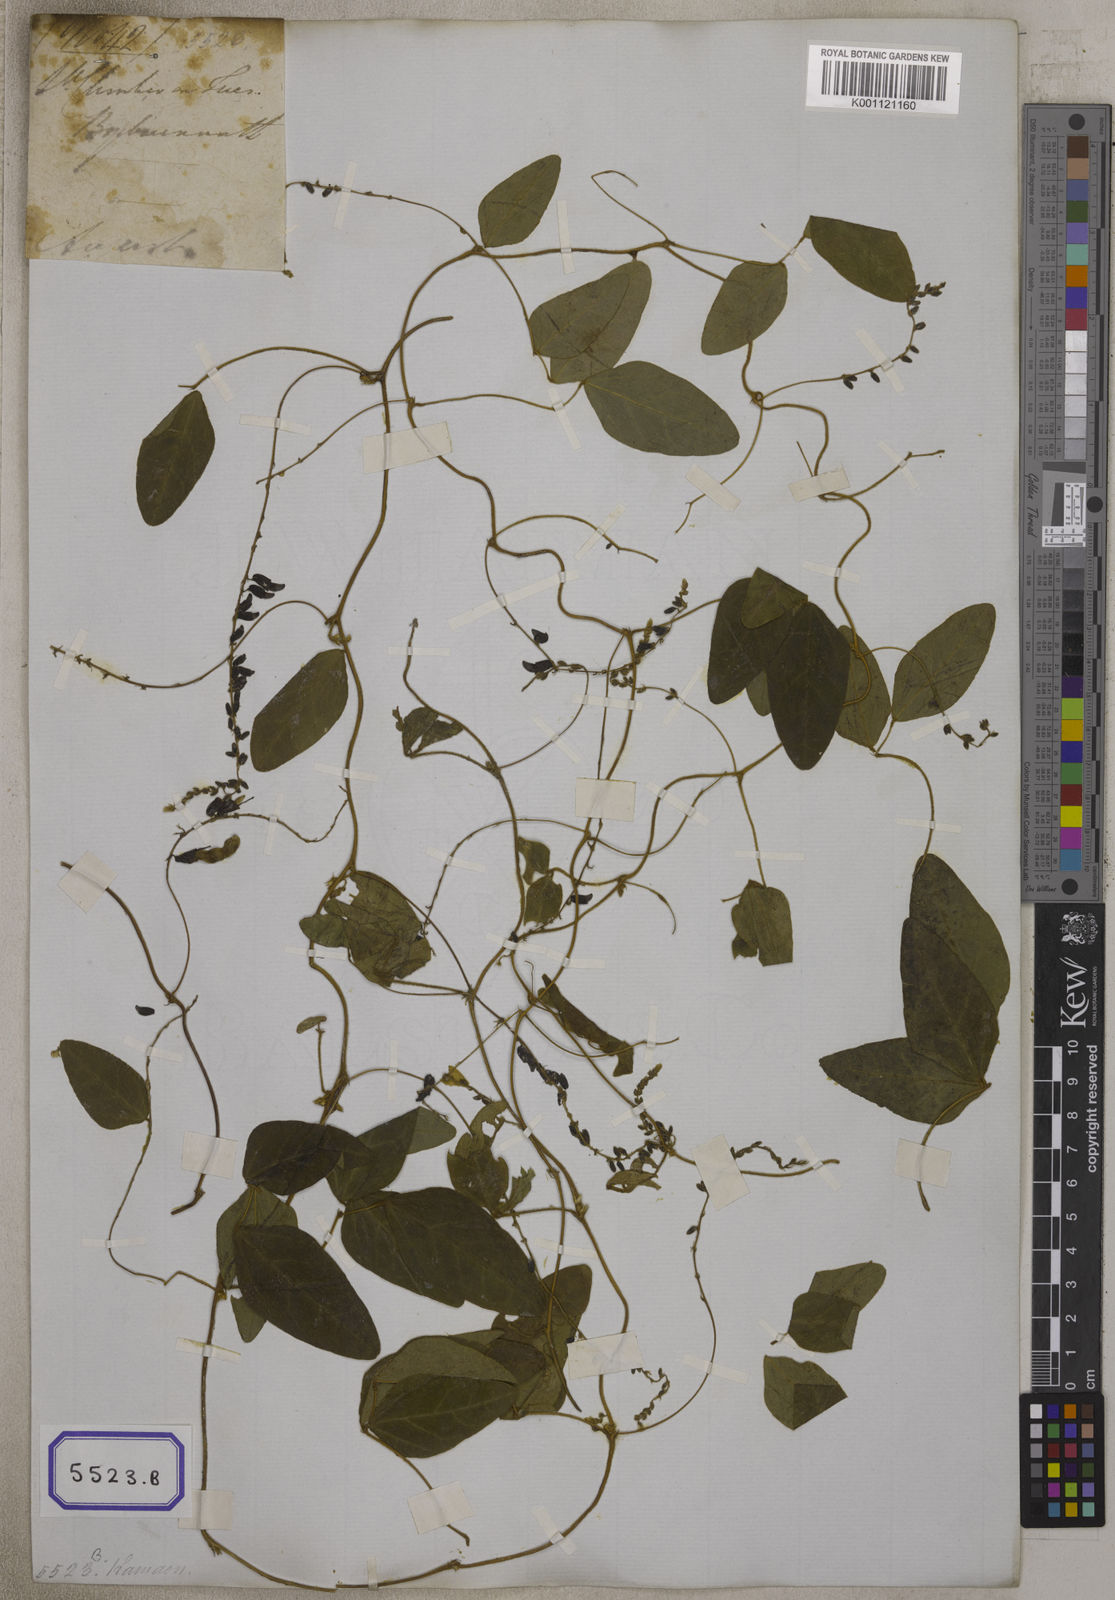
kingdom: Plantae
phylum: Tracheophyta
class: Magnoliopsida
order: Fabales
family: Fabaceae
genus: Dumasia
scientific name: Dumasia villosa
